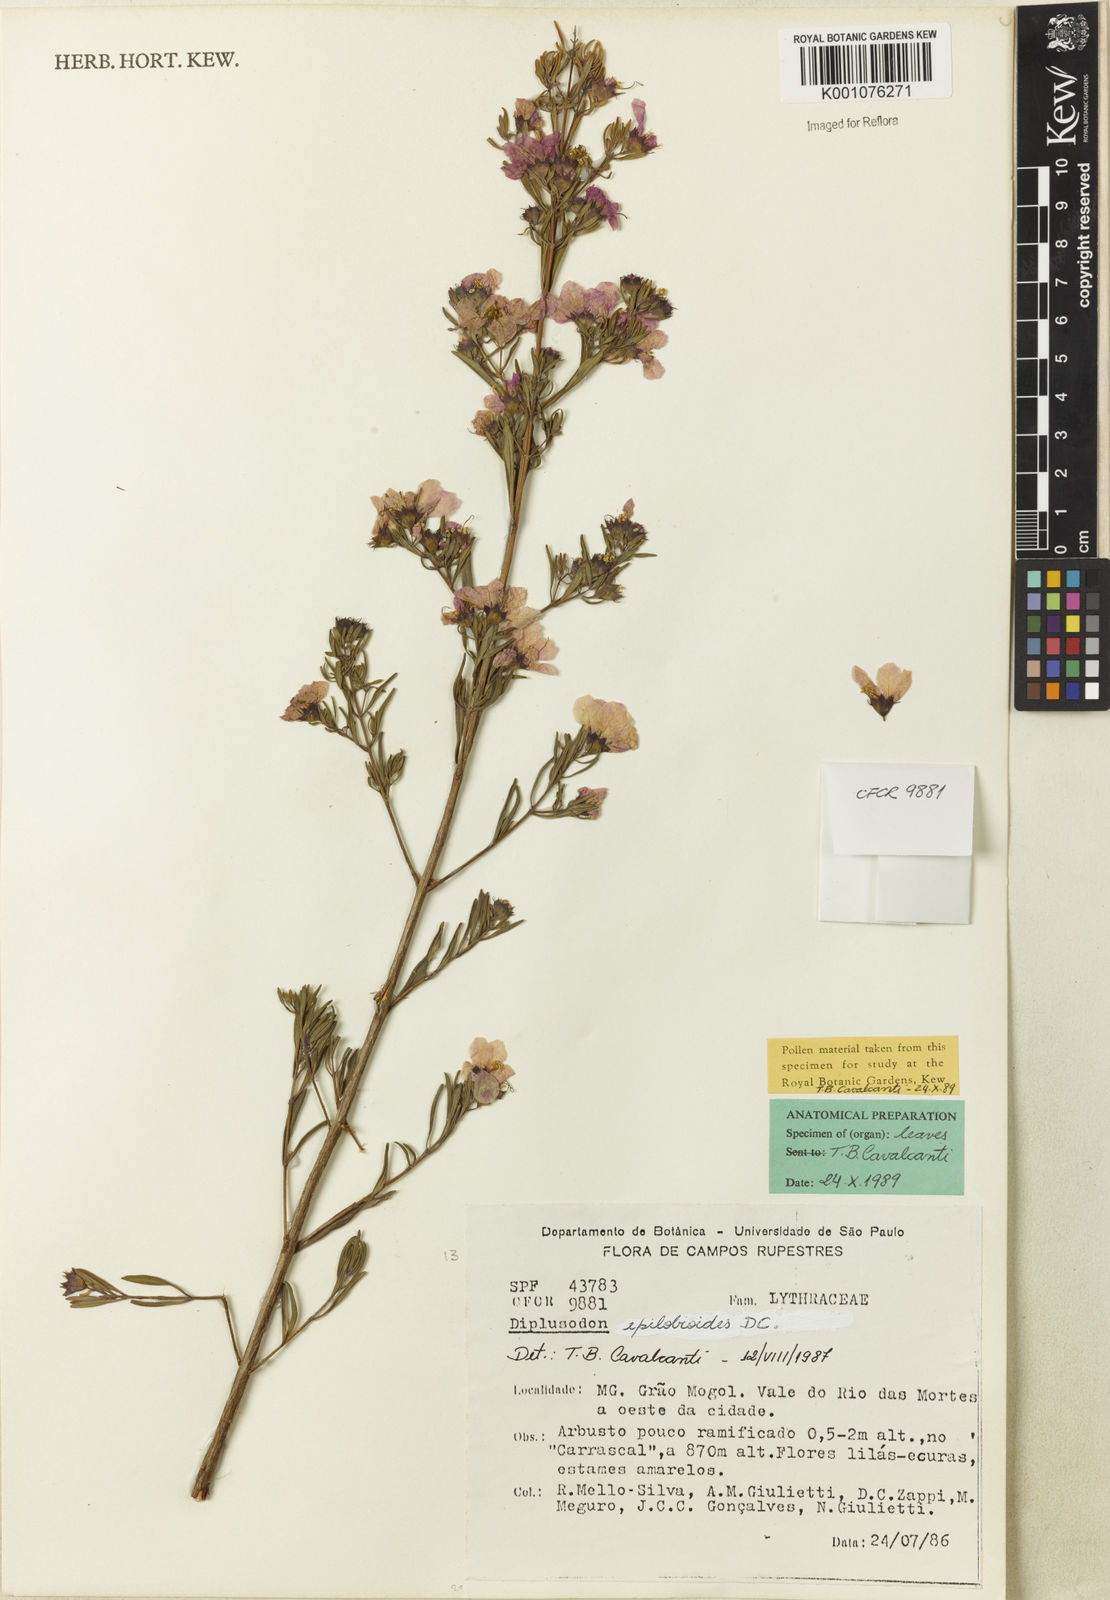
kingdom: Plantae
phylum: Tracheophyta
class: Magnoliopsida
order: Myrtales
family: Lythraceae
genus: Diplusodon
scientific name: Diplusodon epilobioides
